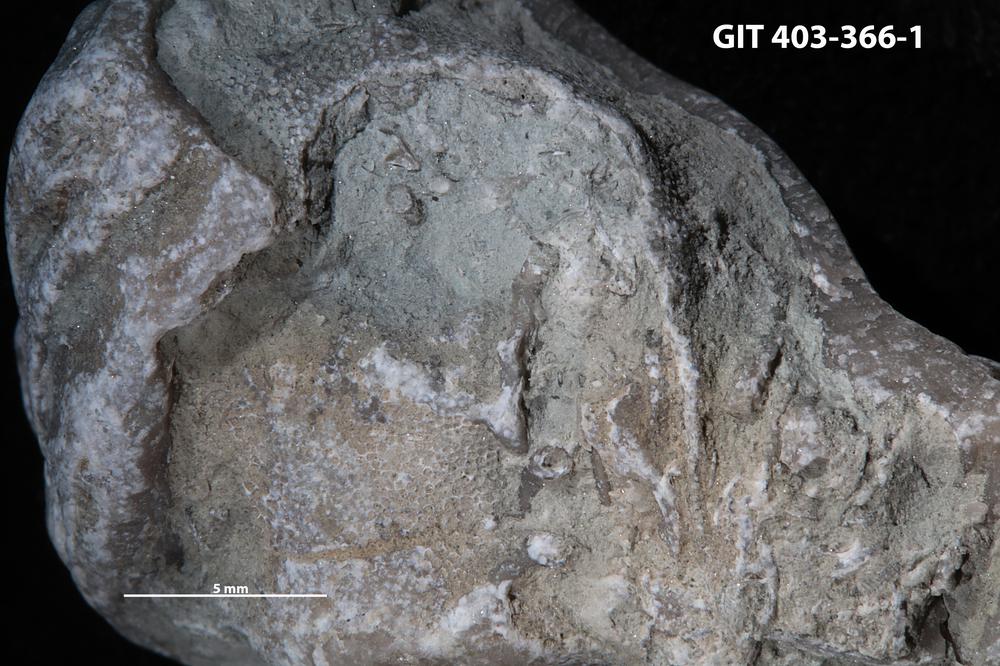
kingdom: Animalia
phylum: Cnidaria
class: Anthozoa
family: Auloporidae
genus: Aulopora
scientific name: Aulopora
